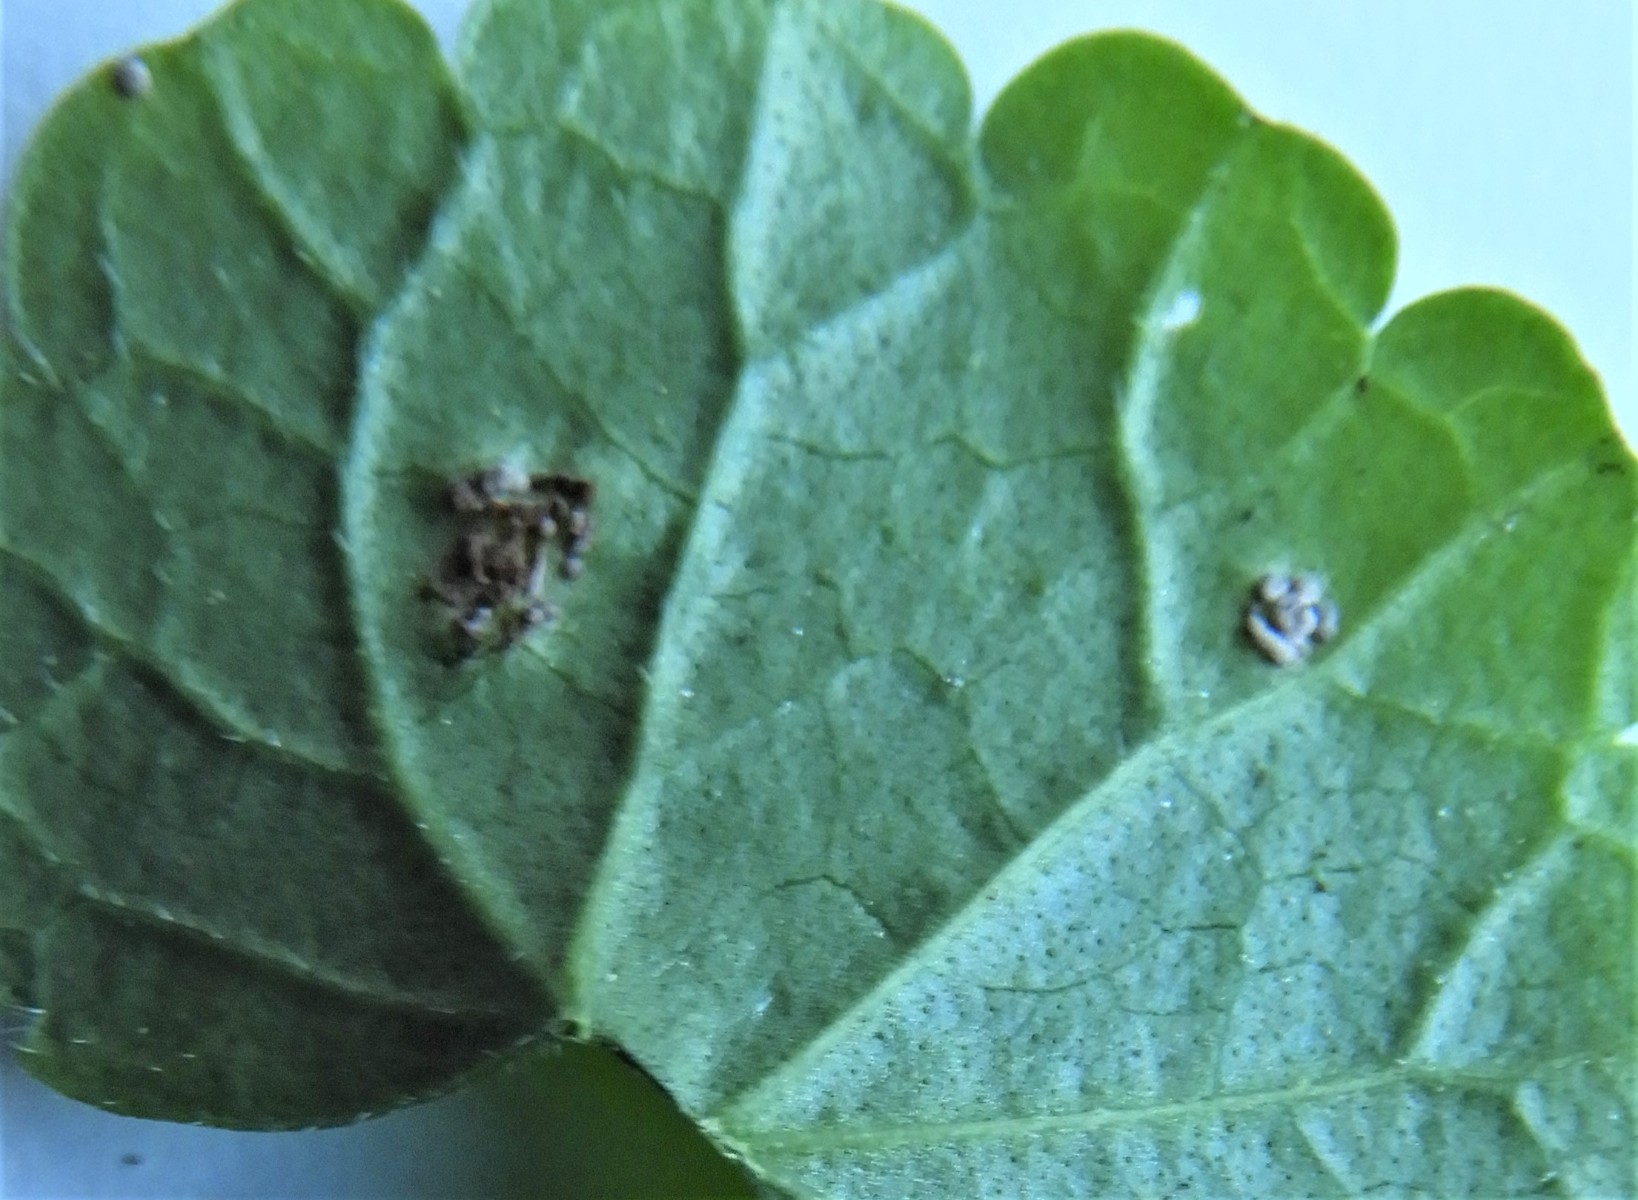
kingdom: Fungi
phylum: Basidiomycota
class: Pucciniomycetes
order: Pucciniales
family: Pucciniaceae
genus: Puccinia
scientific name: Puccinia glechomatis
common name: Ground ivy rust
